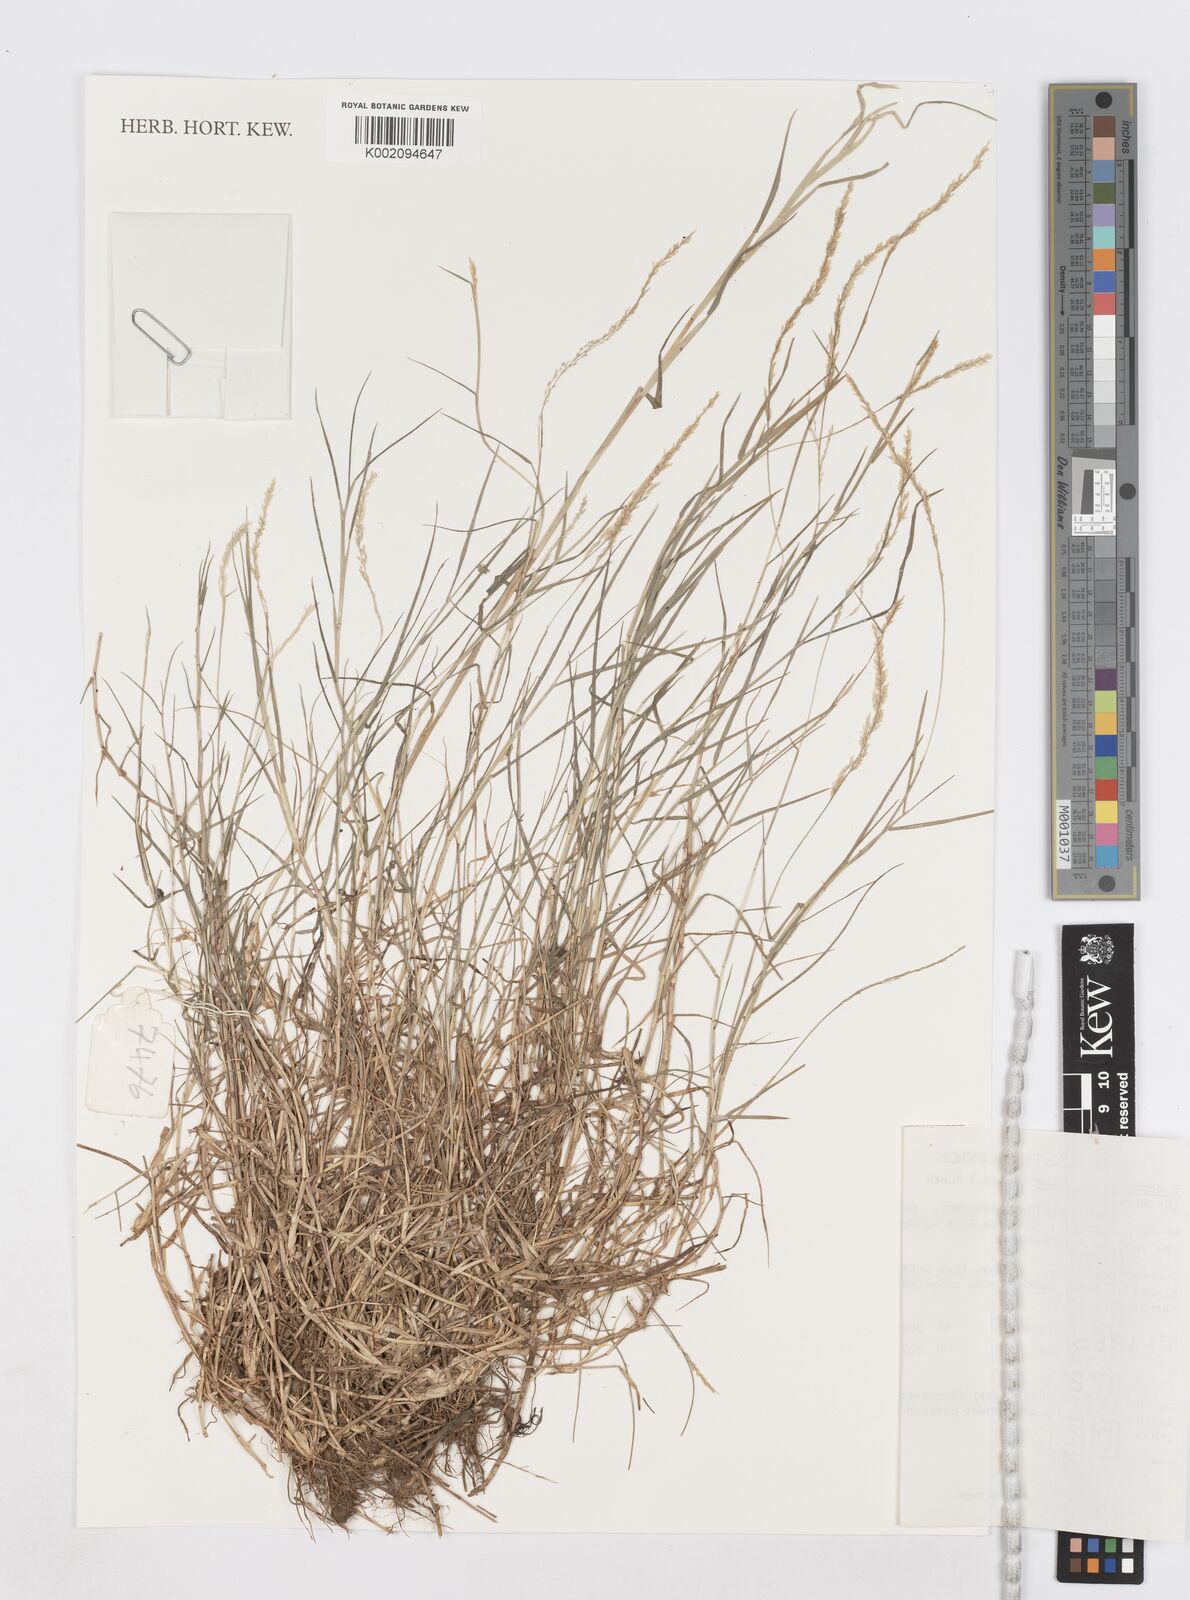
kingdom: Plantae
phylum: Tracheophyta
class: Liliopsida
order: Poales
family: Poaceae
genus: Sporobolus
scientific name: Sporobolus virginicus
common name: Beach dropseed
